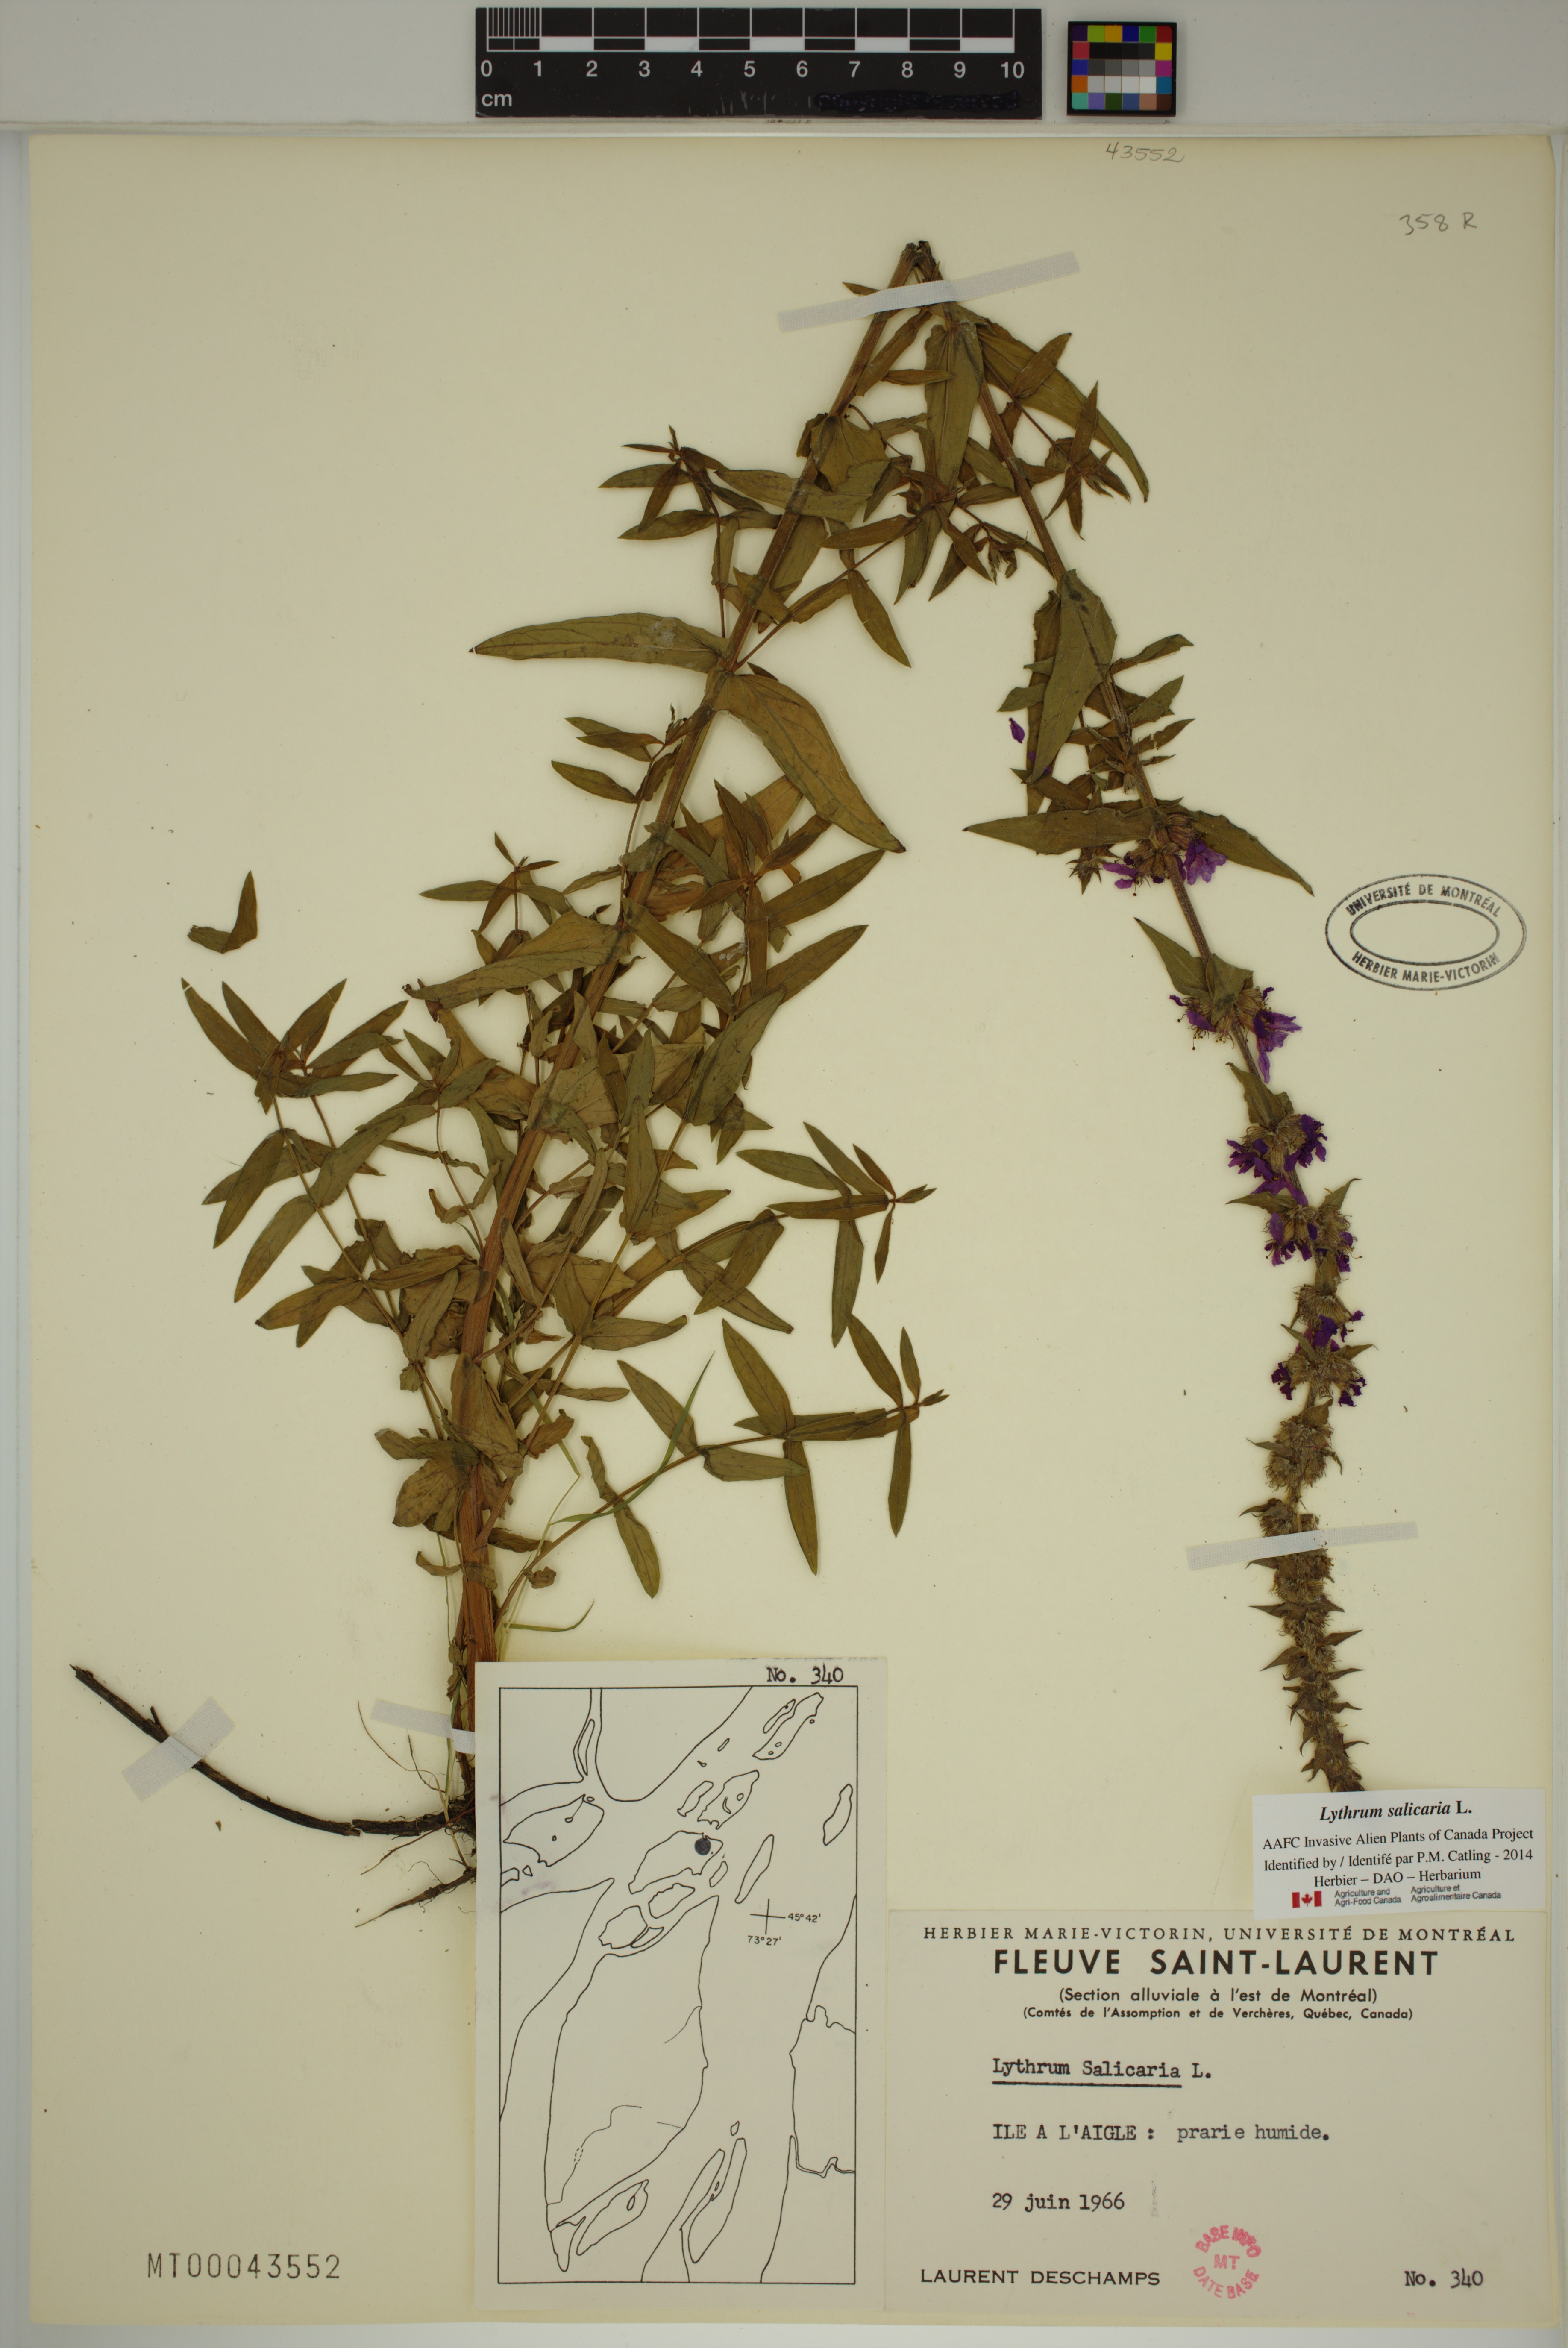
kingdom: Plantae
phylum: Tracheophyta
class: Magnoliopsida
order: Myrtales
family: Lythraceae
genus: Lythrum
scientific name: Lythrum salicaria
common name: Purple loosestrife
